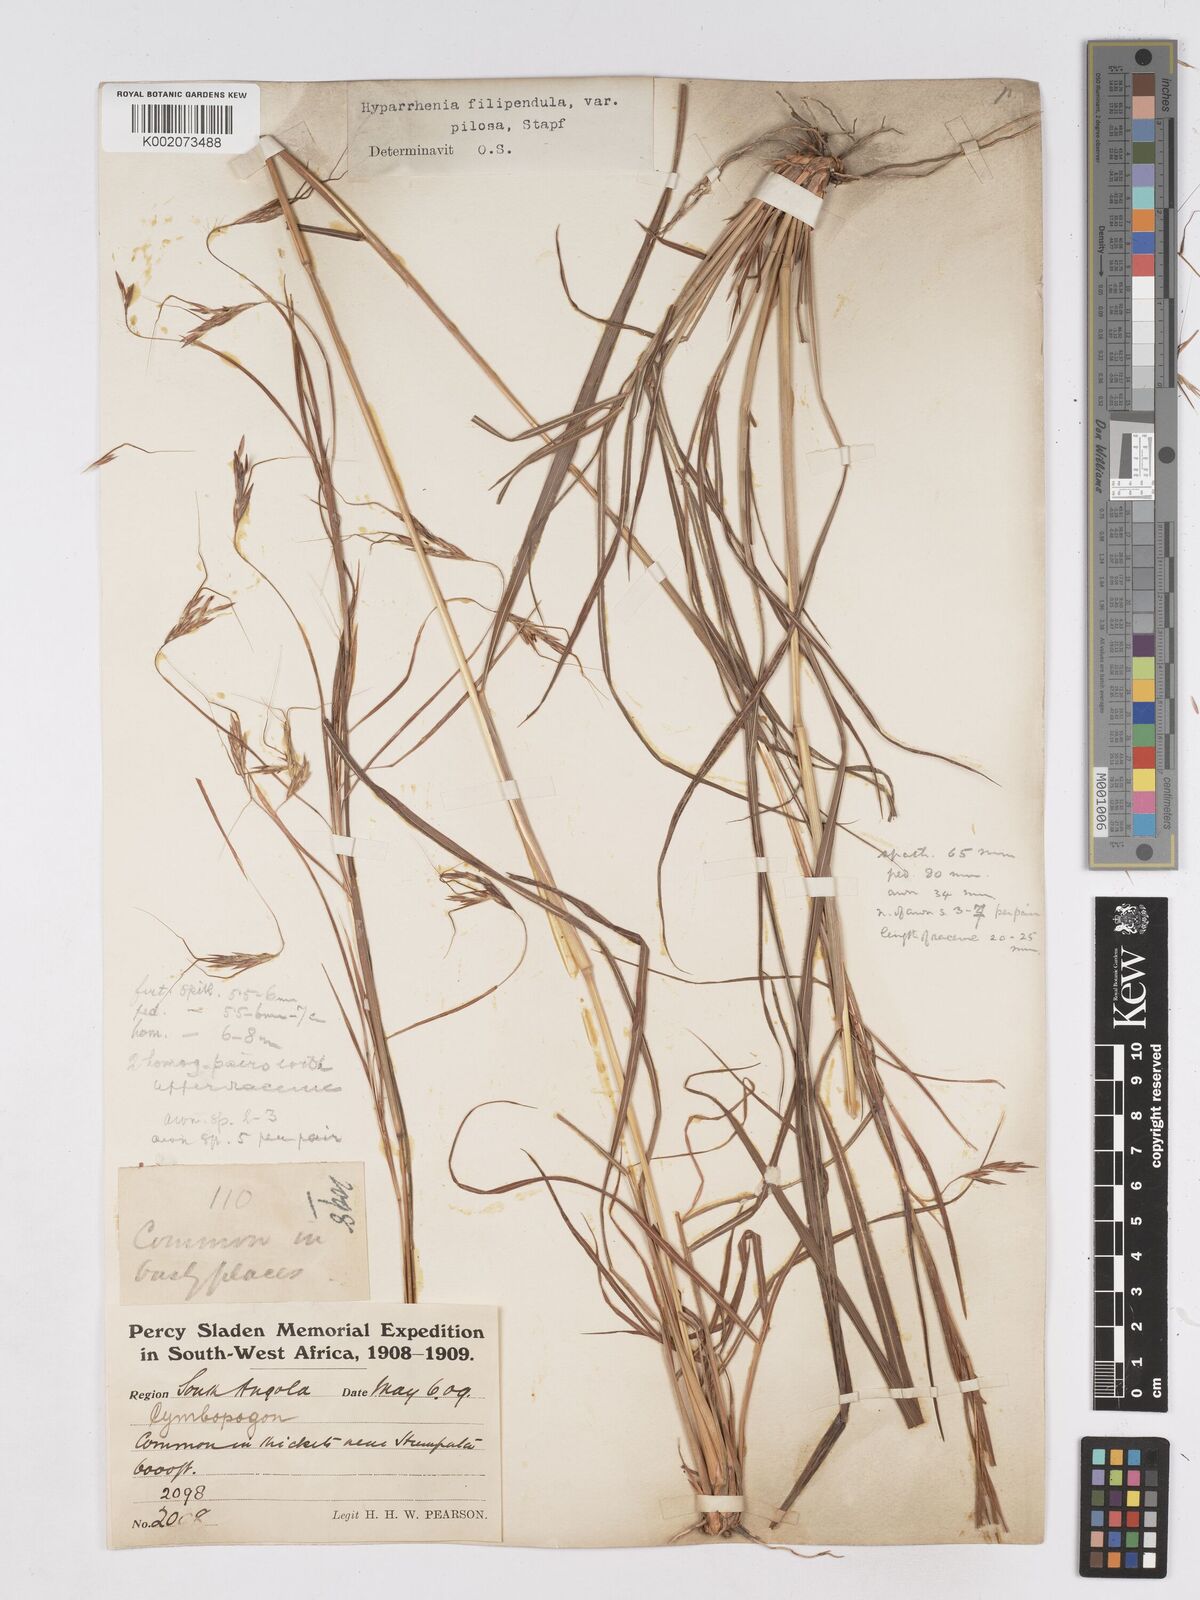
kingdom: Plantae
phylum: Tracheophyta
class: Liliopsida
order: Poales
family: Poaceae
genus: Hyparrhenia
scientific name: Hyparrhenia filipendula
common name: Tambookie grass
